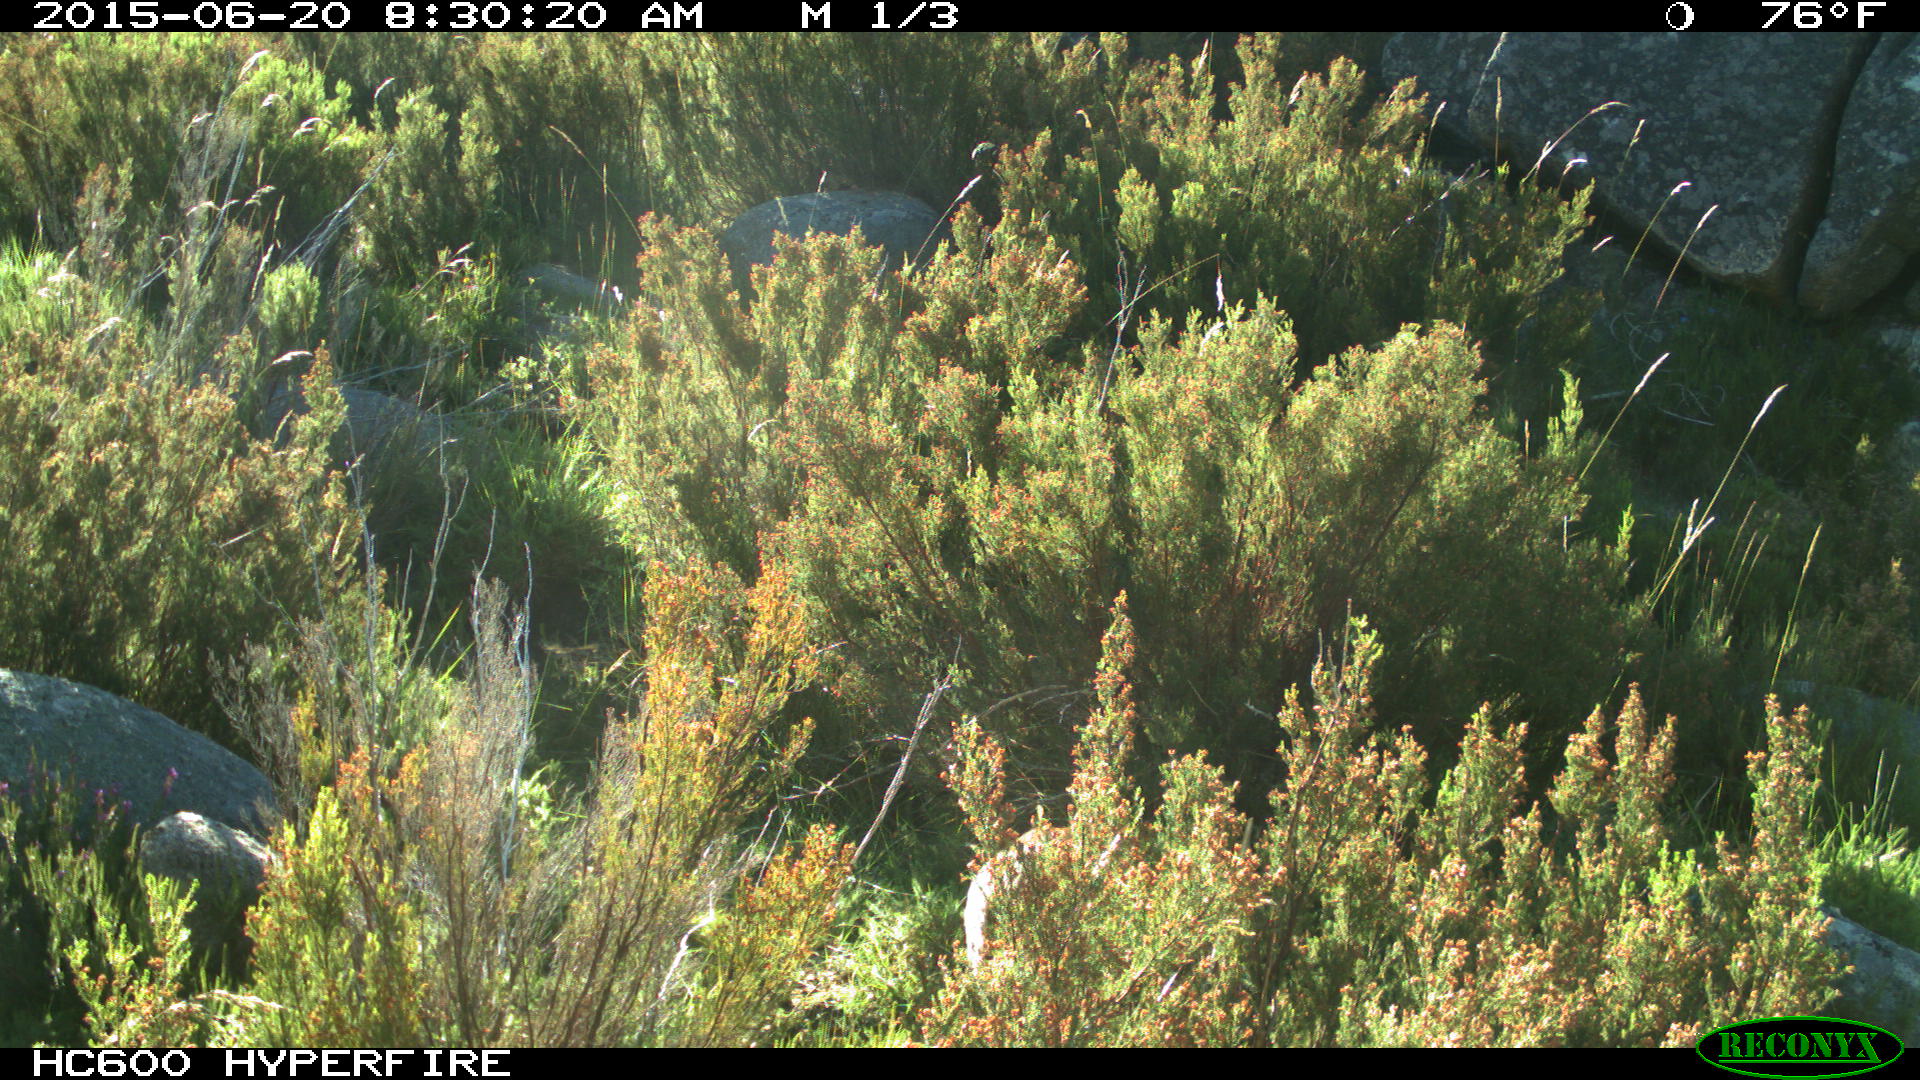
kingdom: Animalia
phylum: Chordata
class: Mammalia
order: Artiodactyla
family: Bovidae
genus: Bos
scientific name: Bos taurus
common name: Domesticated cattle
